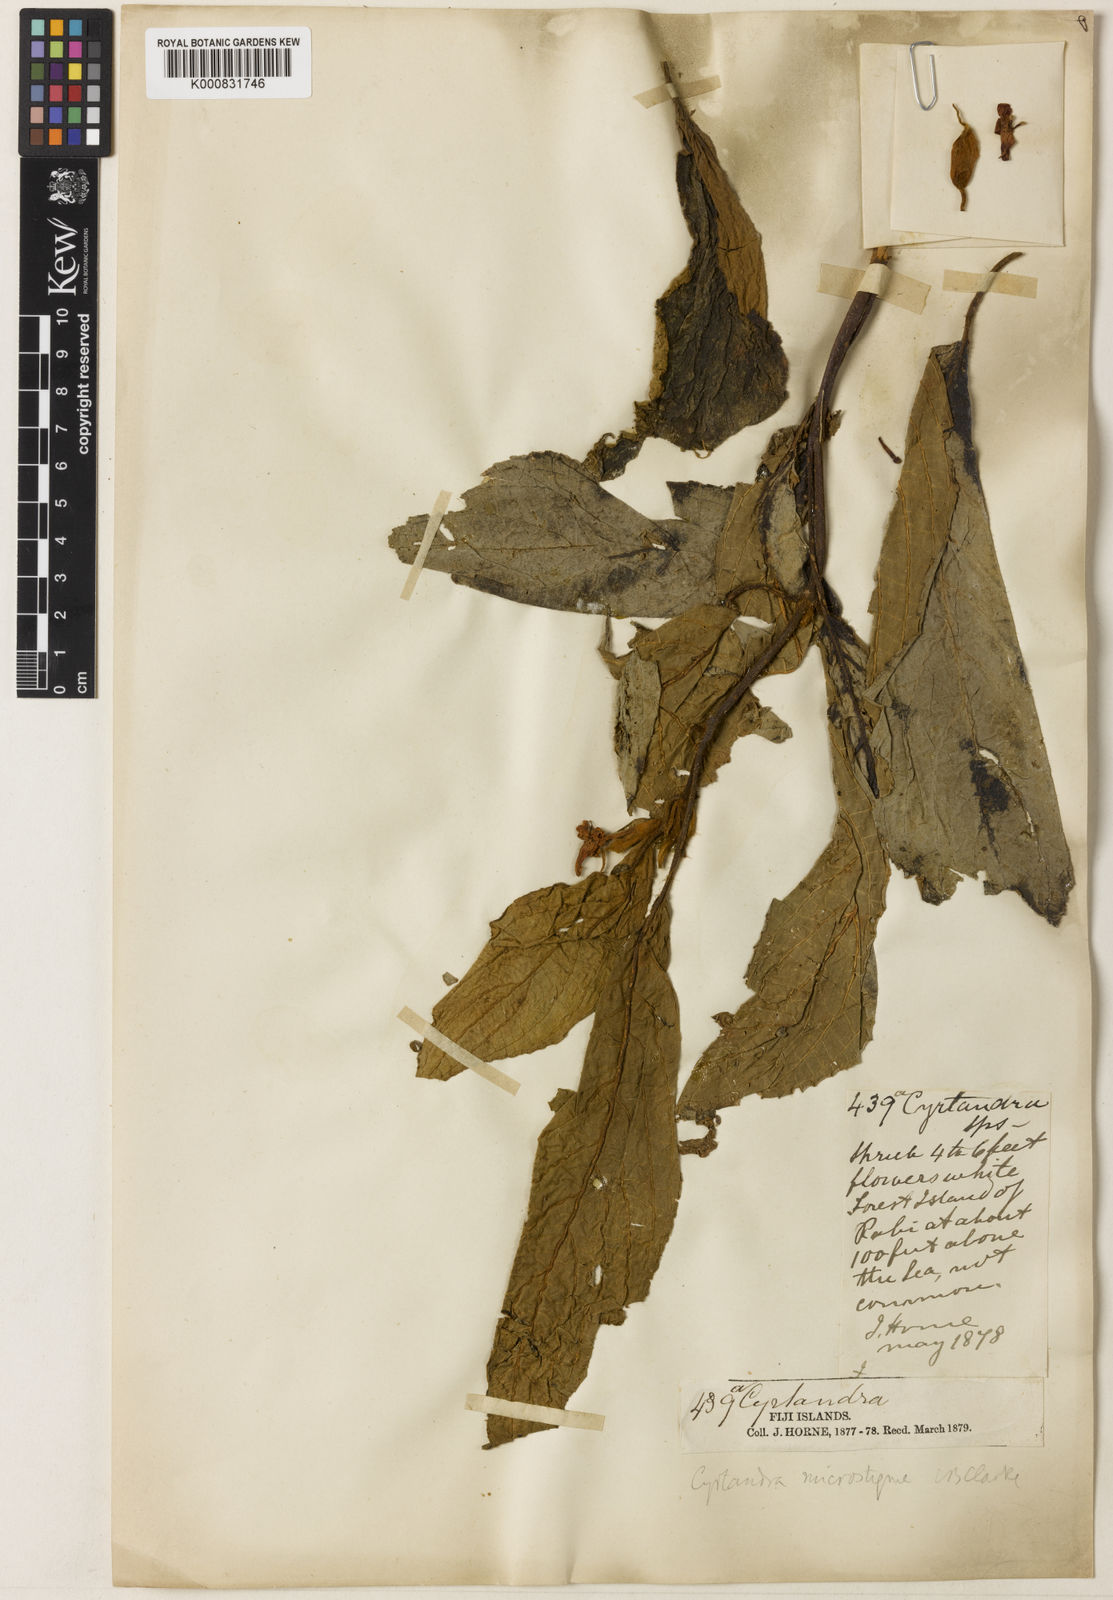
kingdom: Plantae
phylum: Tracheophyta
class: Magnoliopsida
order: Lamiales
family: Gesneriaceae
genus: Cyrtandra
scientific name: Cyrtandra dolichocarpa
